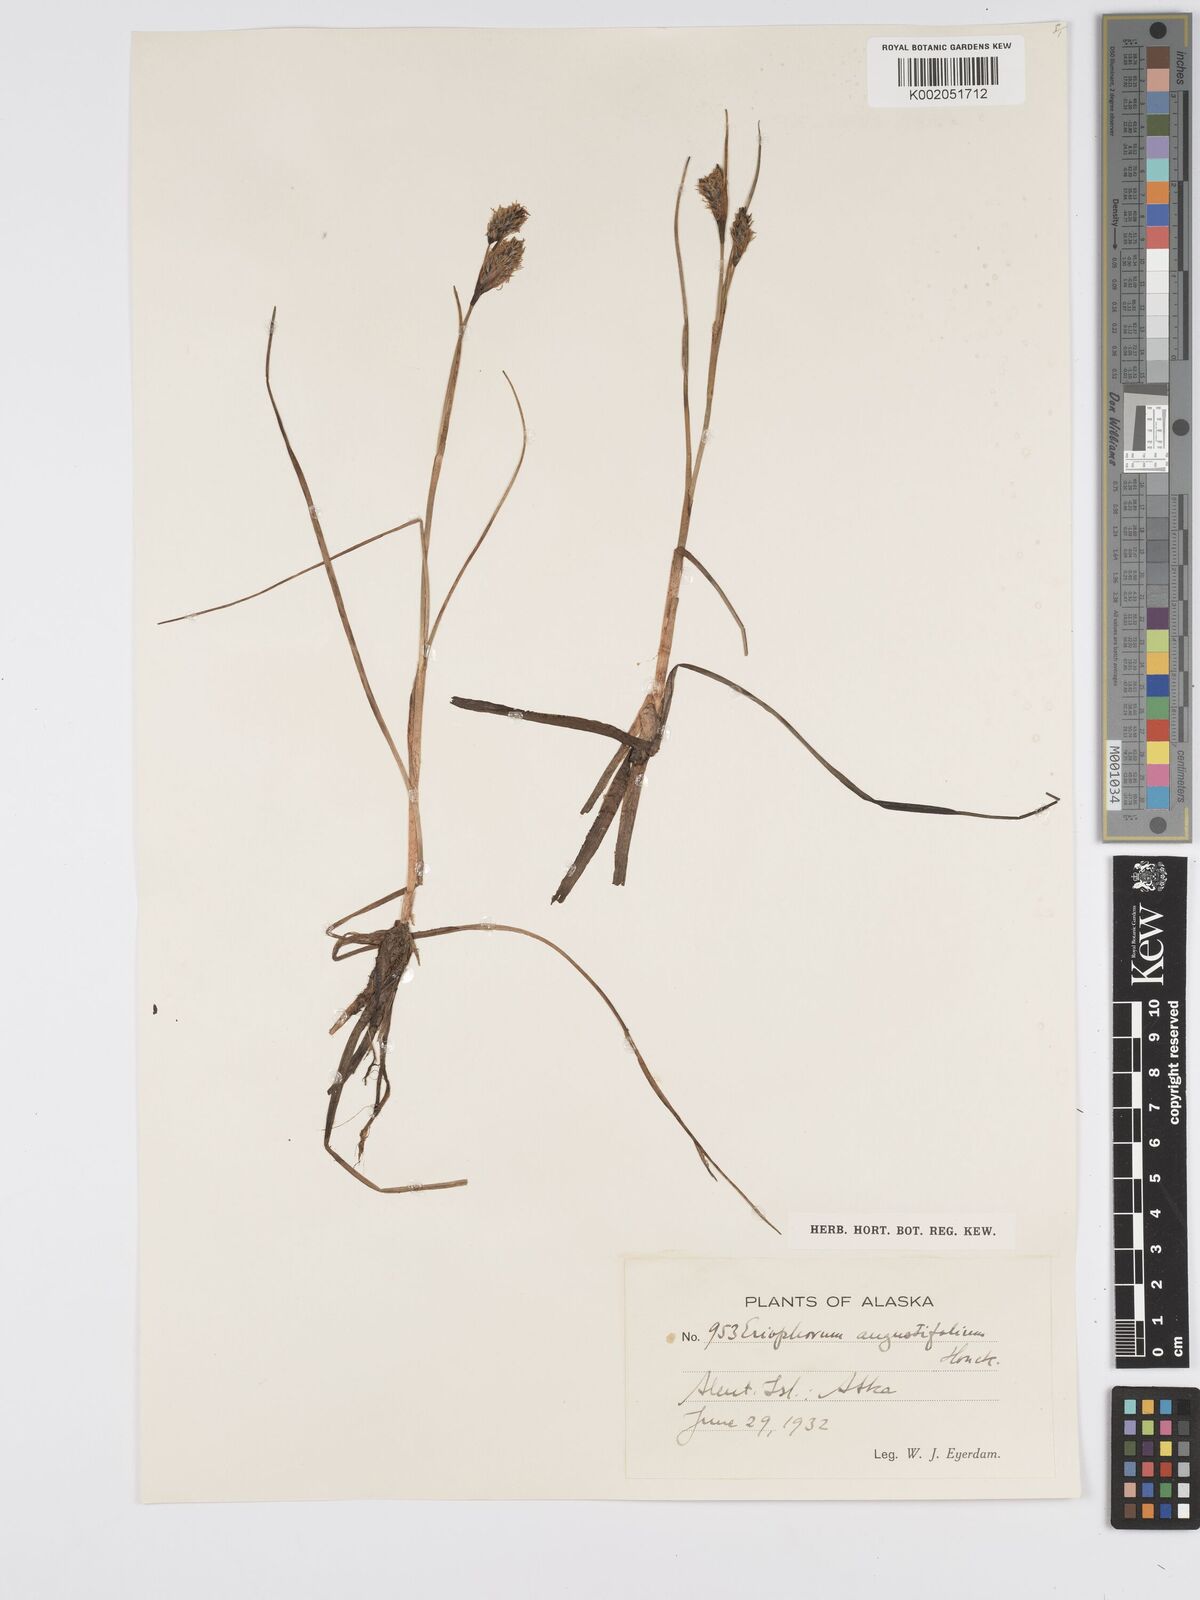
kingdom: Plantae
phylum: Tracheophyta
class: Liliopsida
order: Poales
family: Cyperaceae
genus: Eriophorum
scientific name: Eriophorum angustifolium
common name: Common cottongrass
